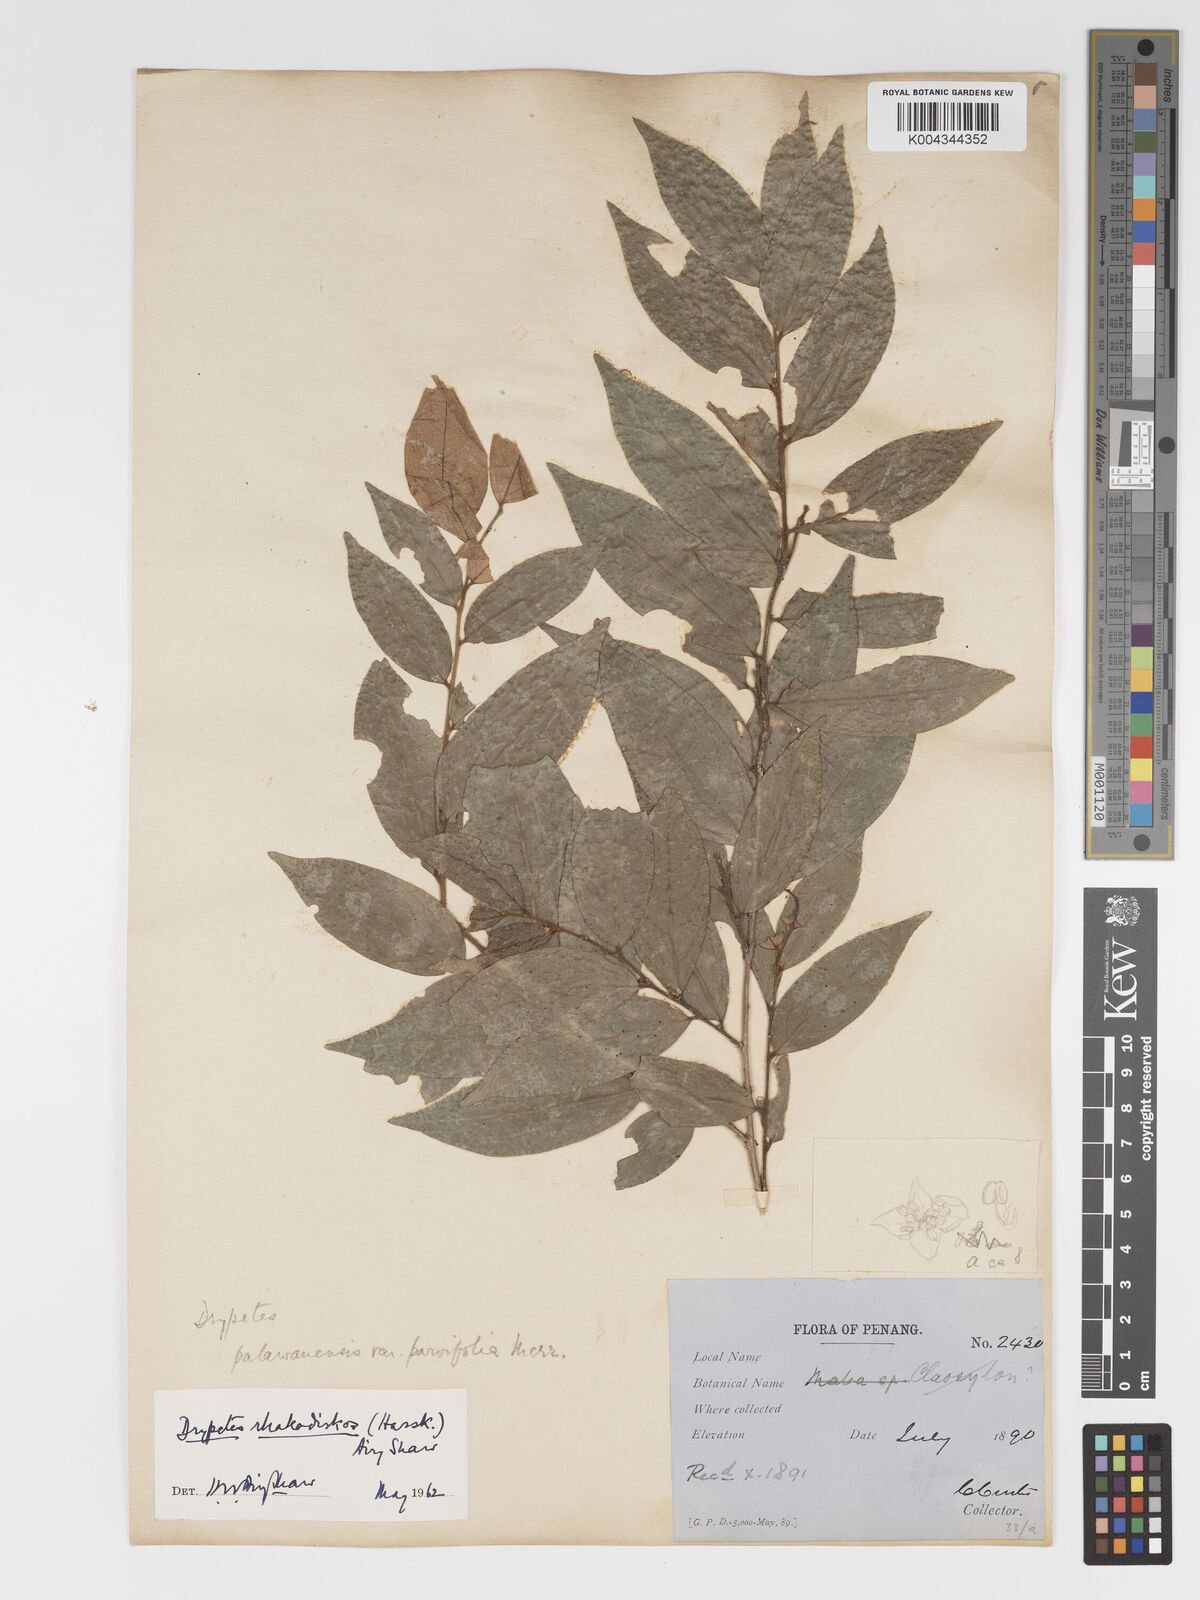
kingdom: Plantae
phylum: Tracheophyta
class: Magnoliopsida
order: Malpighiales
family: Putranjivaceae
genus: Drypetes
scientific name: Drypetes rhakodiskos
